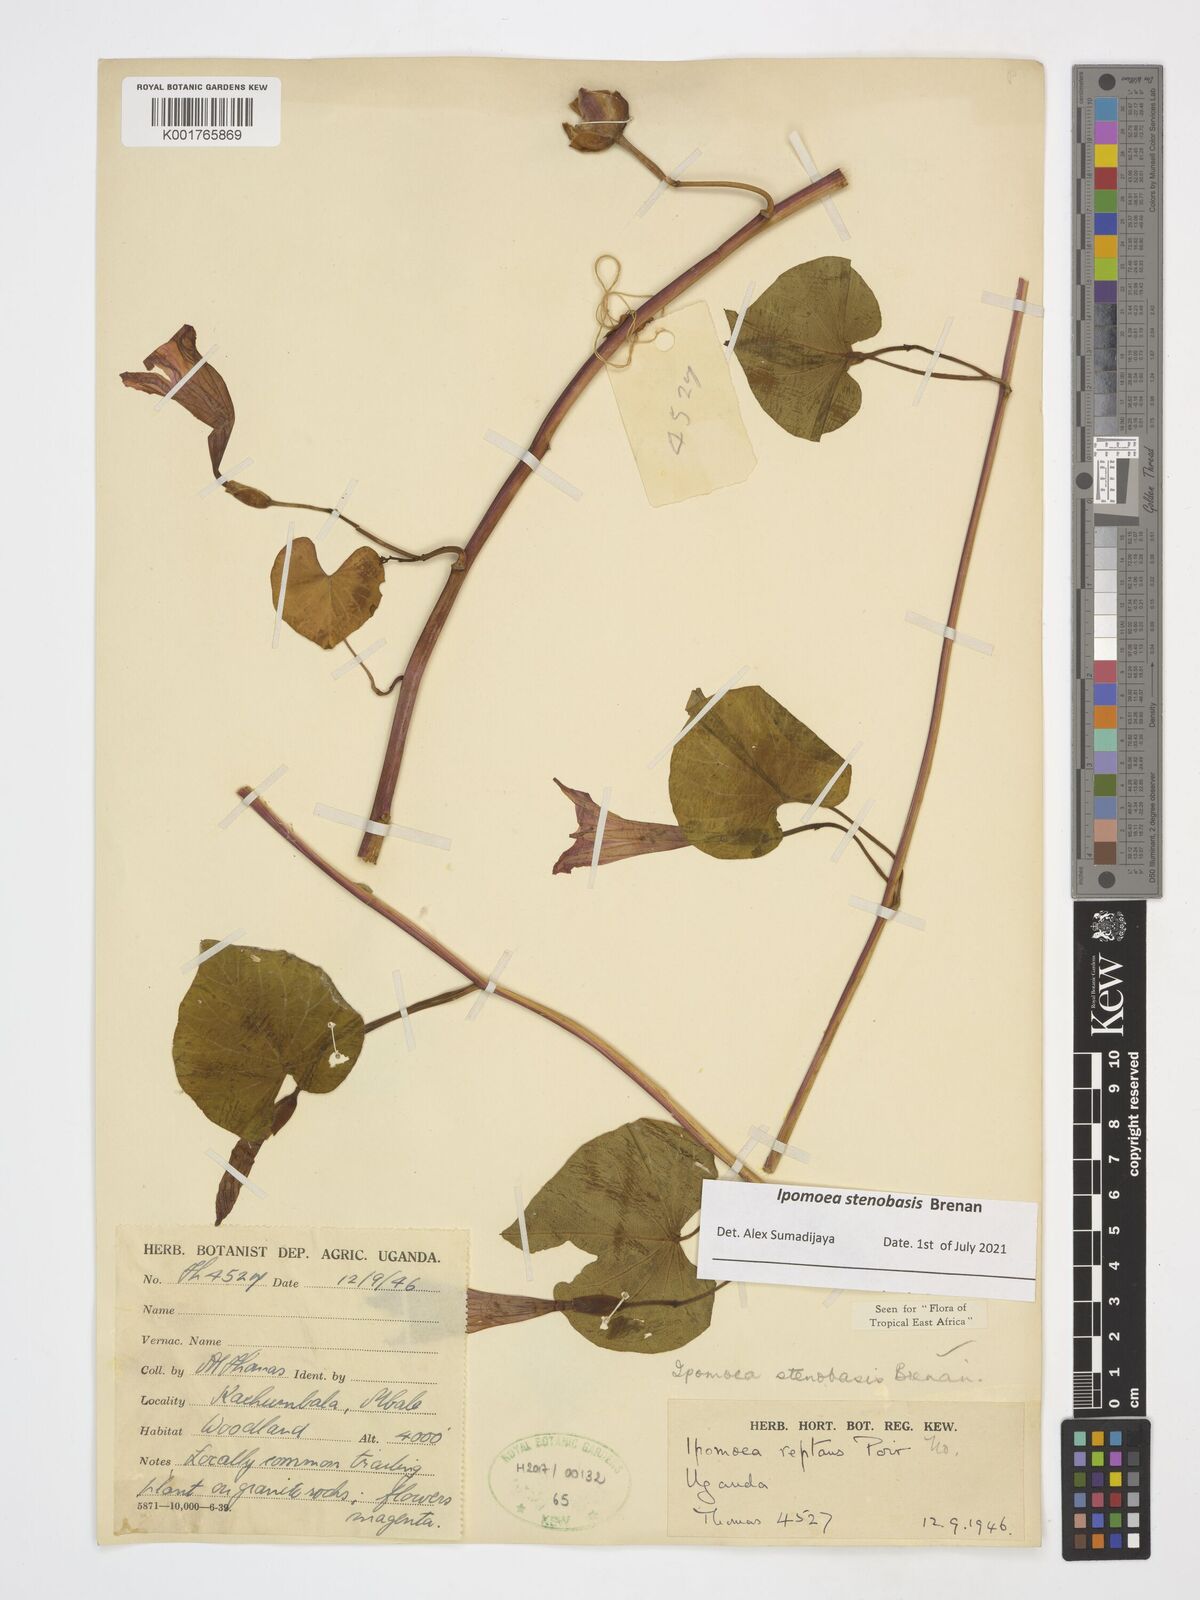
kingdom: Plantae
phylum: Tracheophyta
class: Magnoliopsida
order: Solanales
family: Convolvulaceae
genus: Ipomoea
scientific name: Ipomoea stenobasis
